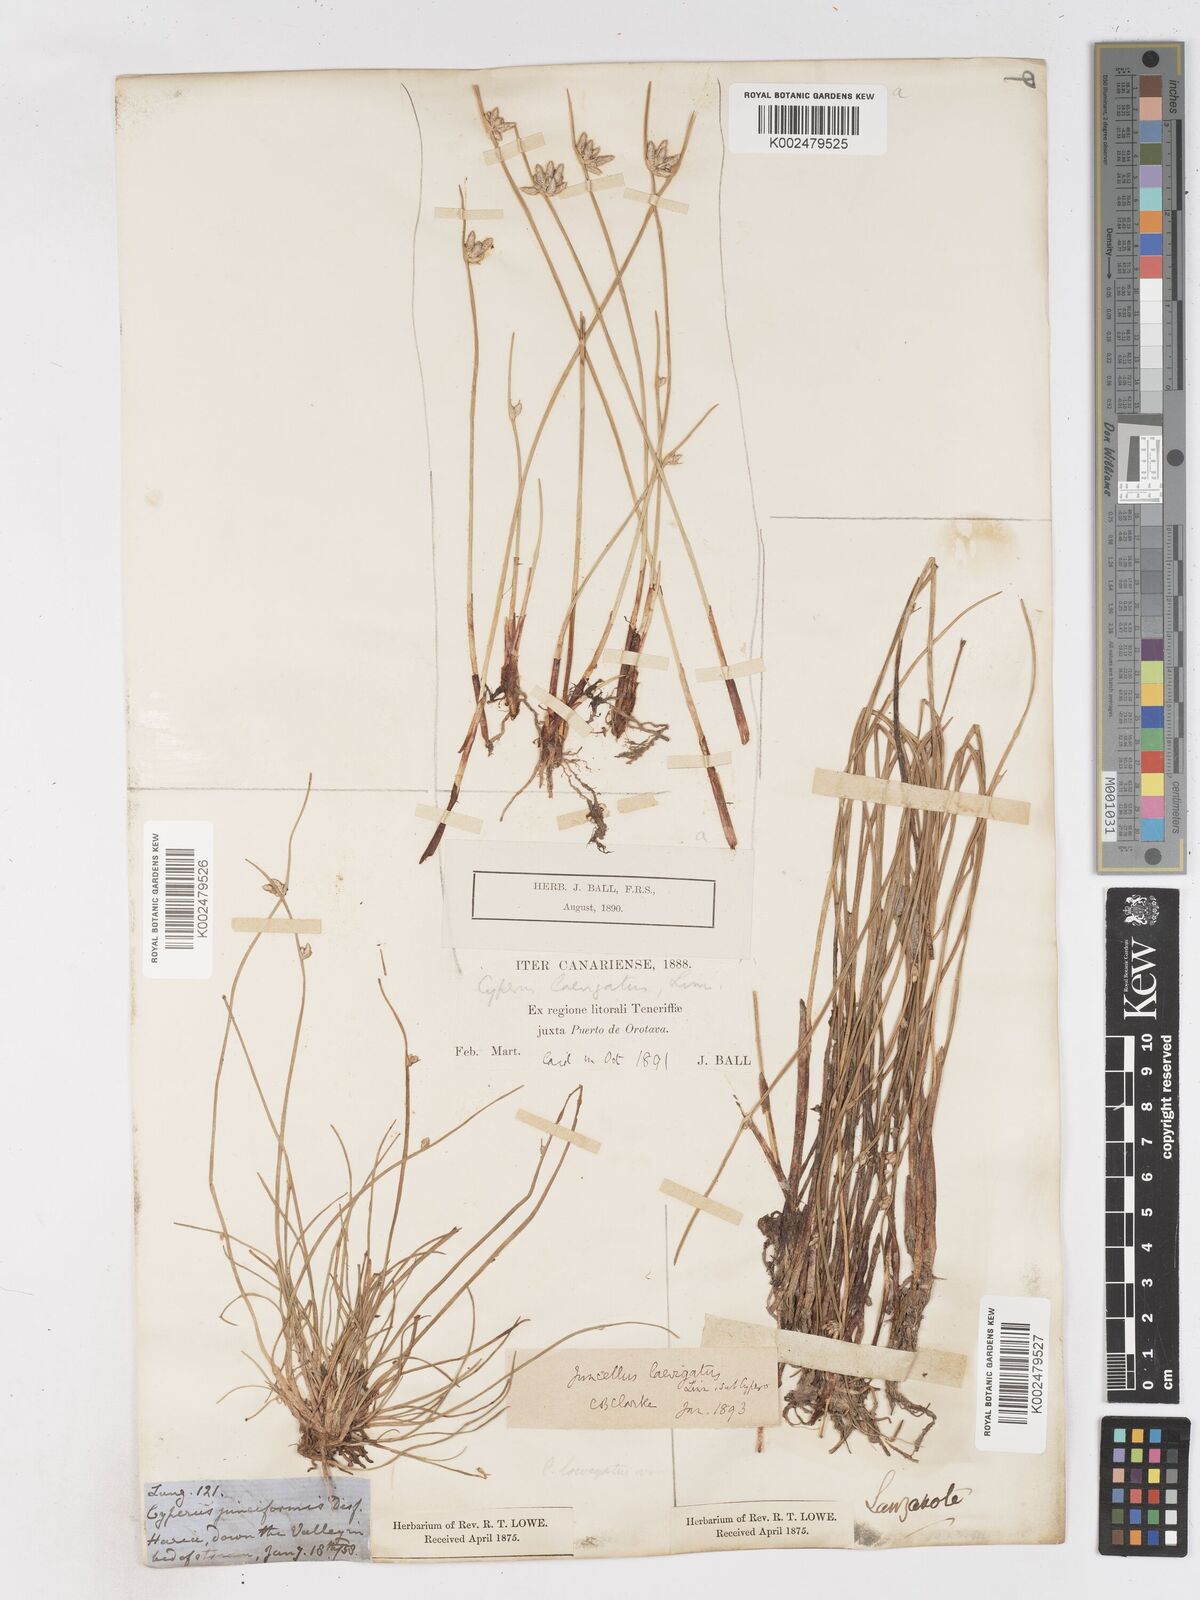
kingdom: Plantae
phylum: Tracheophyta
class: Liliopsida
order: Poales
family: Cyperaceae
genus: Cyperus
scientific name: Cyperus laevigatus
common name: Smooth flat sedge
